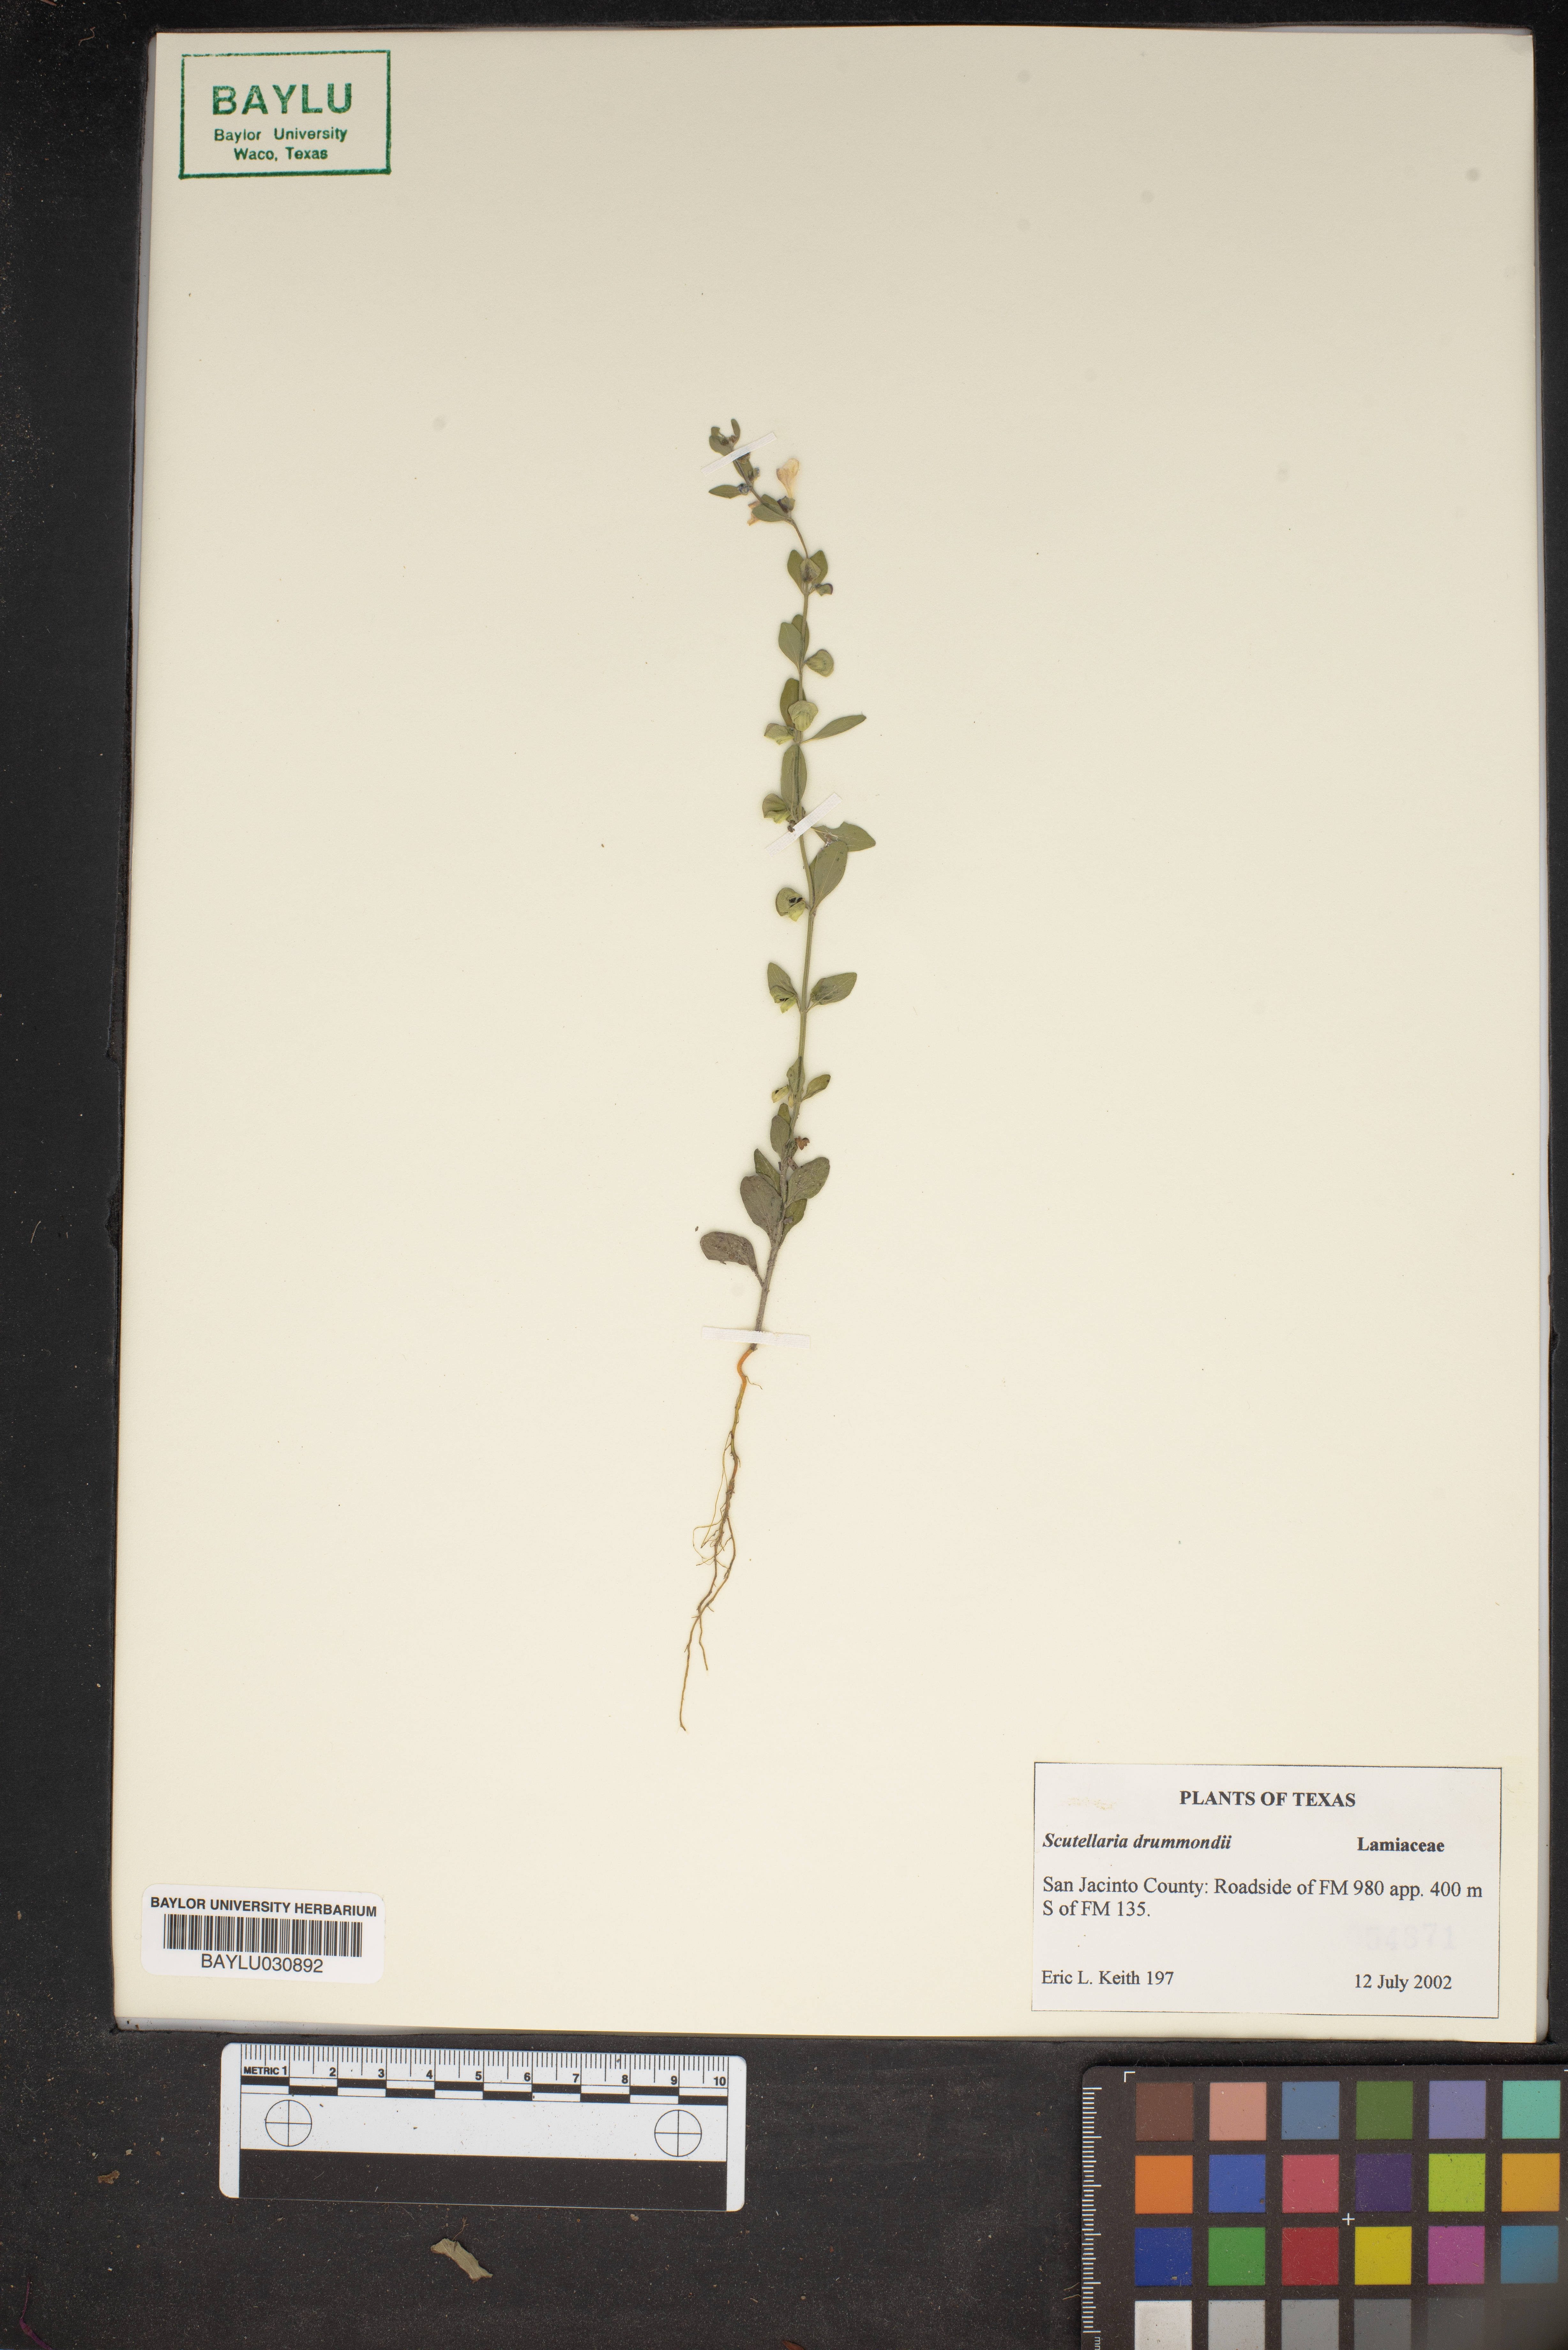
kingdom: Plantae
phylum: Tracheophyta
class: Magnoliopsida
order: Lamiales
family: Lamiaceae
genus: Scutellaria
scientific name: Scutellaria drummondii
